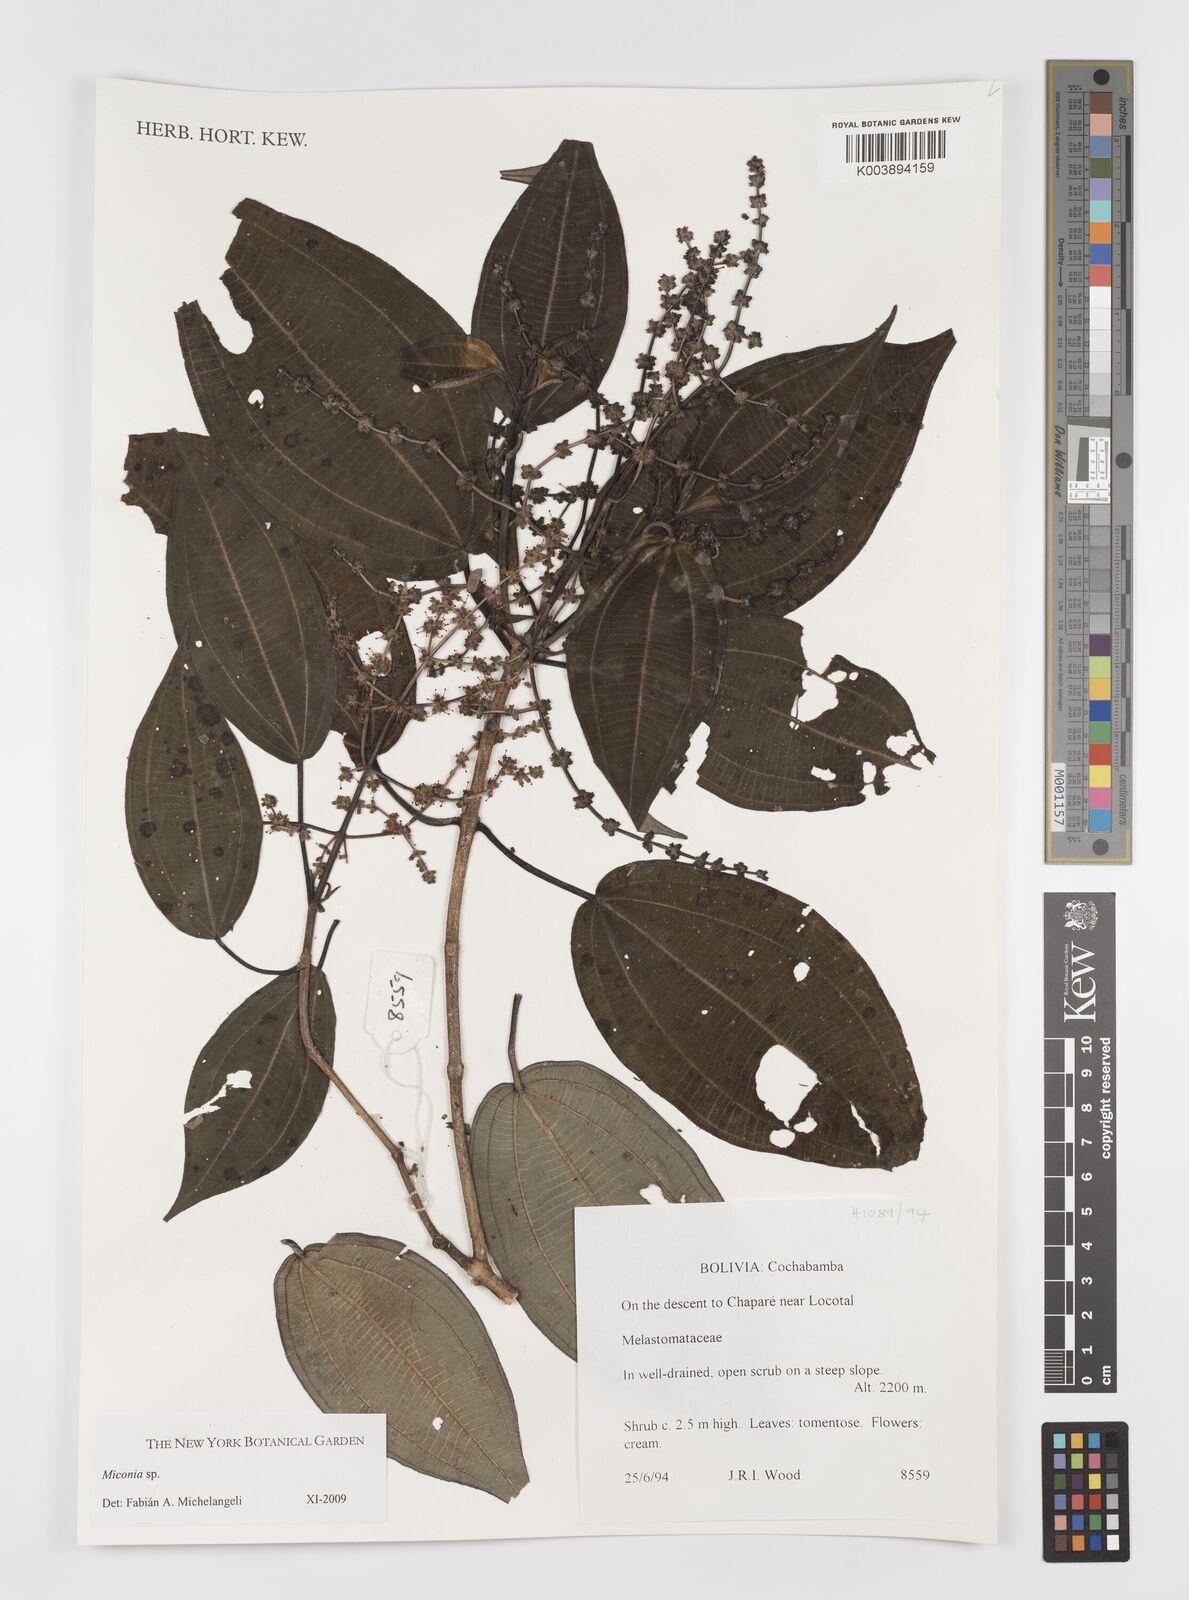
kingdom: Plantae
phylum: Tracheophyta
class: Magnoliopsida
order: Myrtales
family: Melastomataceae
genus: Miconia
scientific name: Miconia
